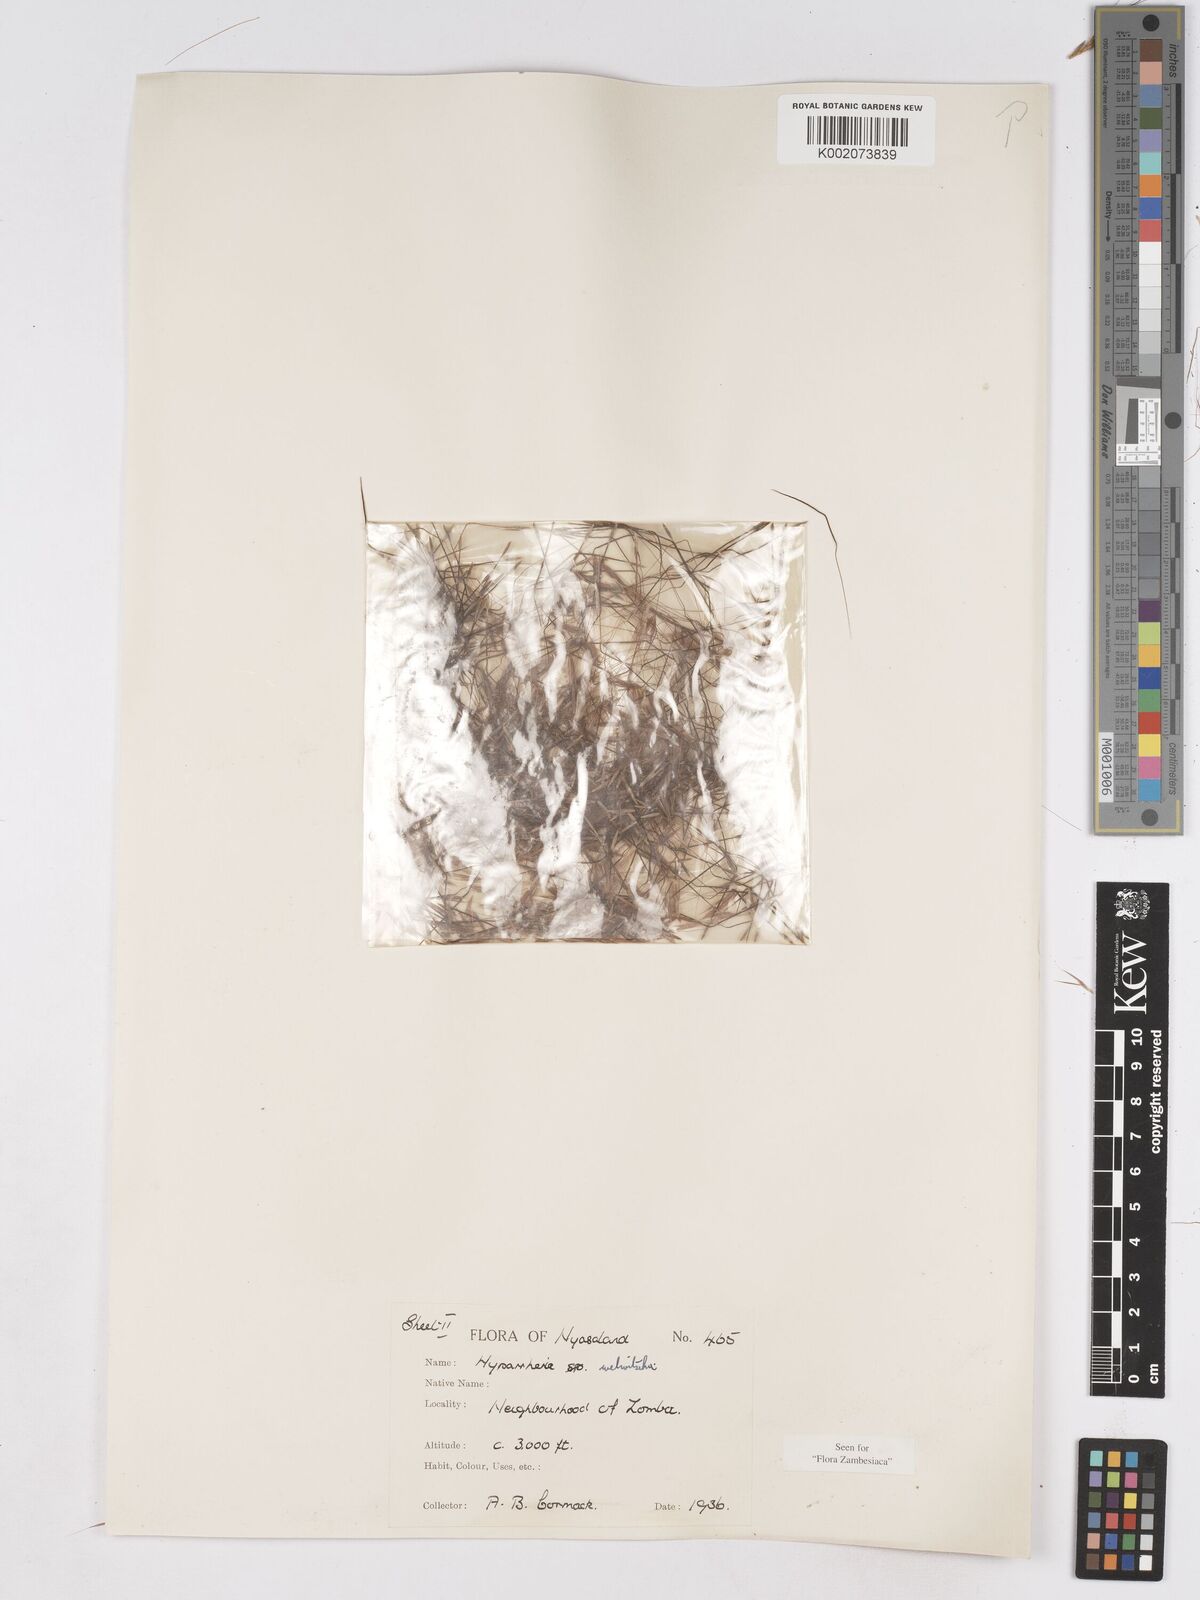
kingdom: Plantae
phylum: Tracheophyta
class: Liliopsida
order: Poales
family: Poaceae
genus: Hyparrhenia
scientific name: Hyparrhenia welwitschii
